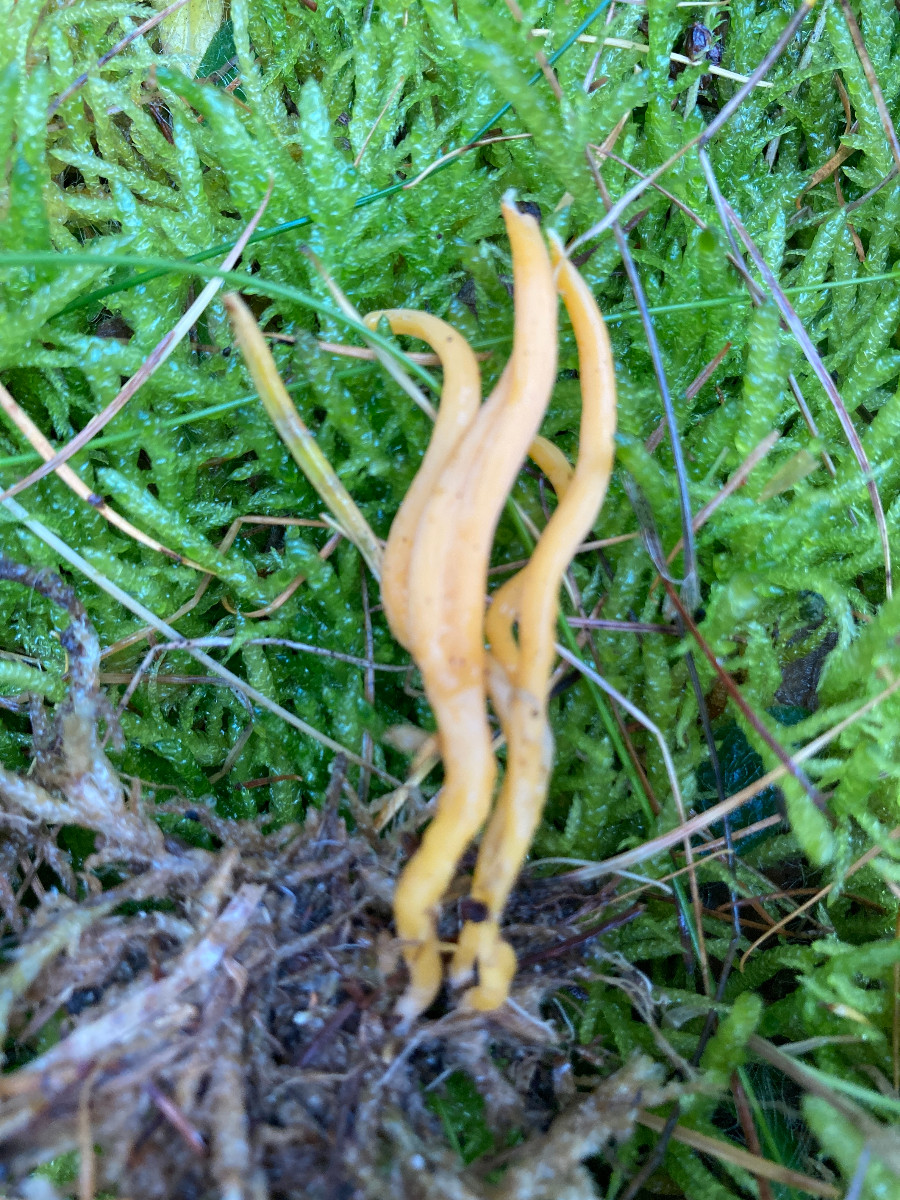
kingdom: Fungi
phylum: Basidiomycota
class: Agaricomycetes
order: Agaricales
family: Clavariaceae
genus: Clavulinopsis
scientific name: Clavulinopsis
